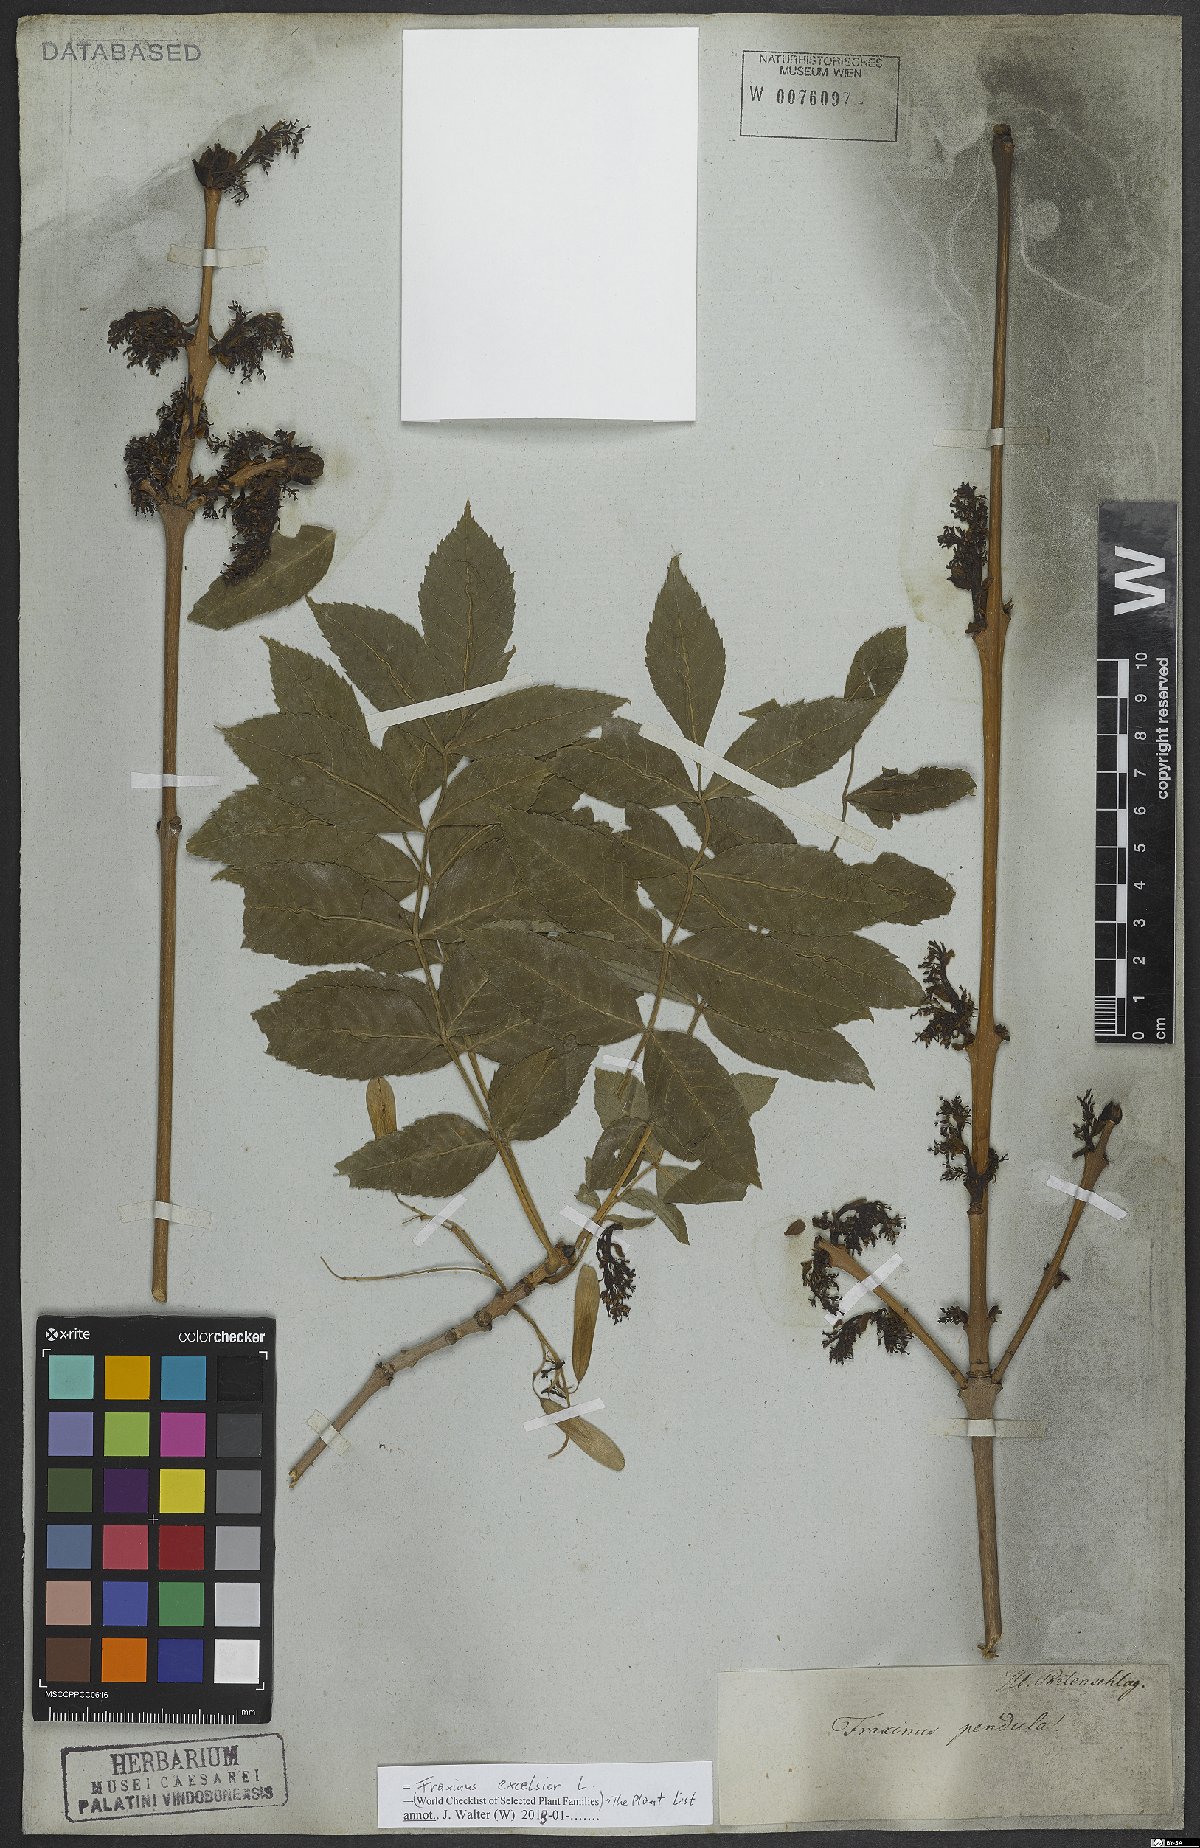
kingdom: Plantae
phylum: Tracheophyta
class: Magnoliopsida
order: Lamiales
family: Oleaceae
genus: Fraxinus
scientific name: Fraxinus excelsior
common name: European ash
